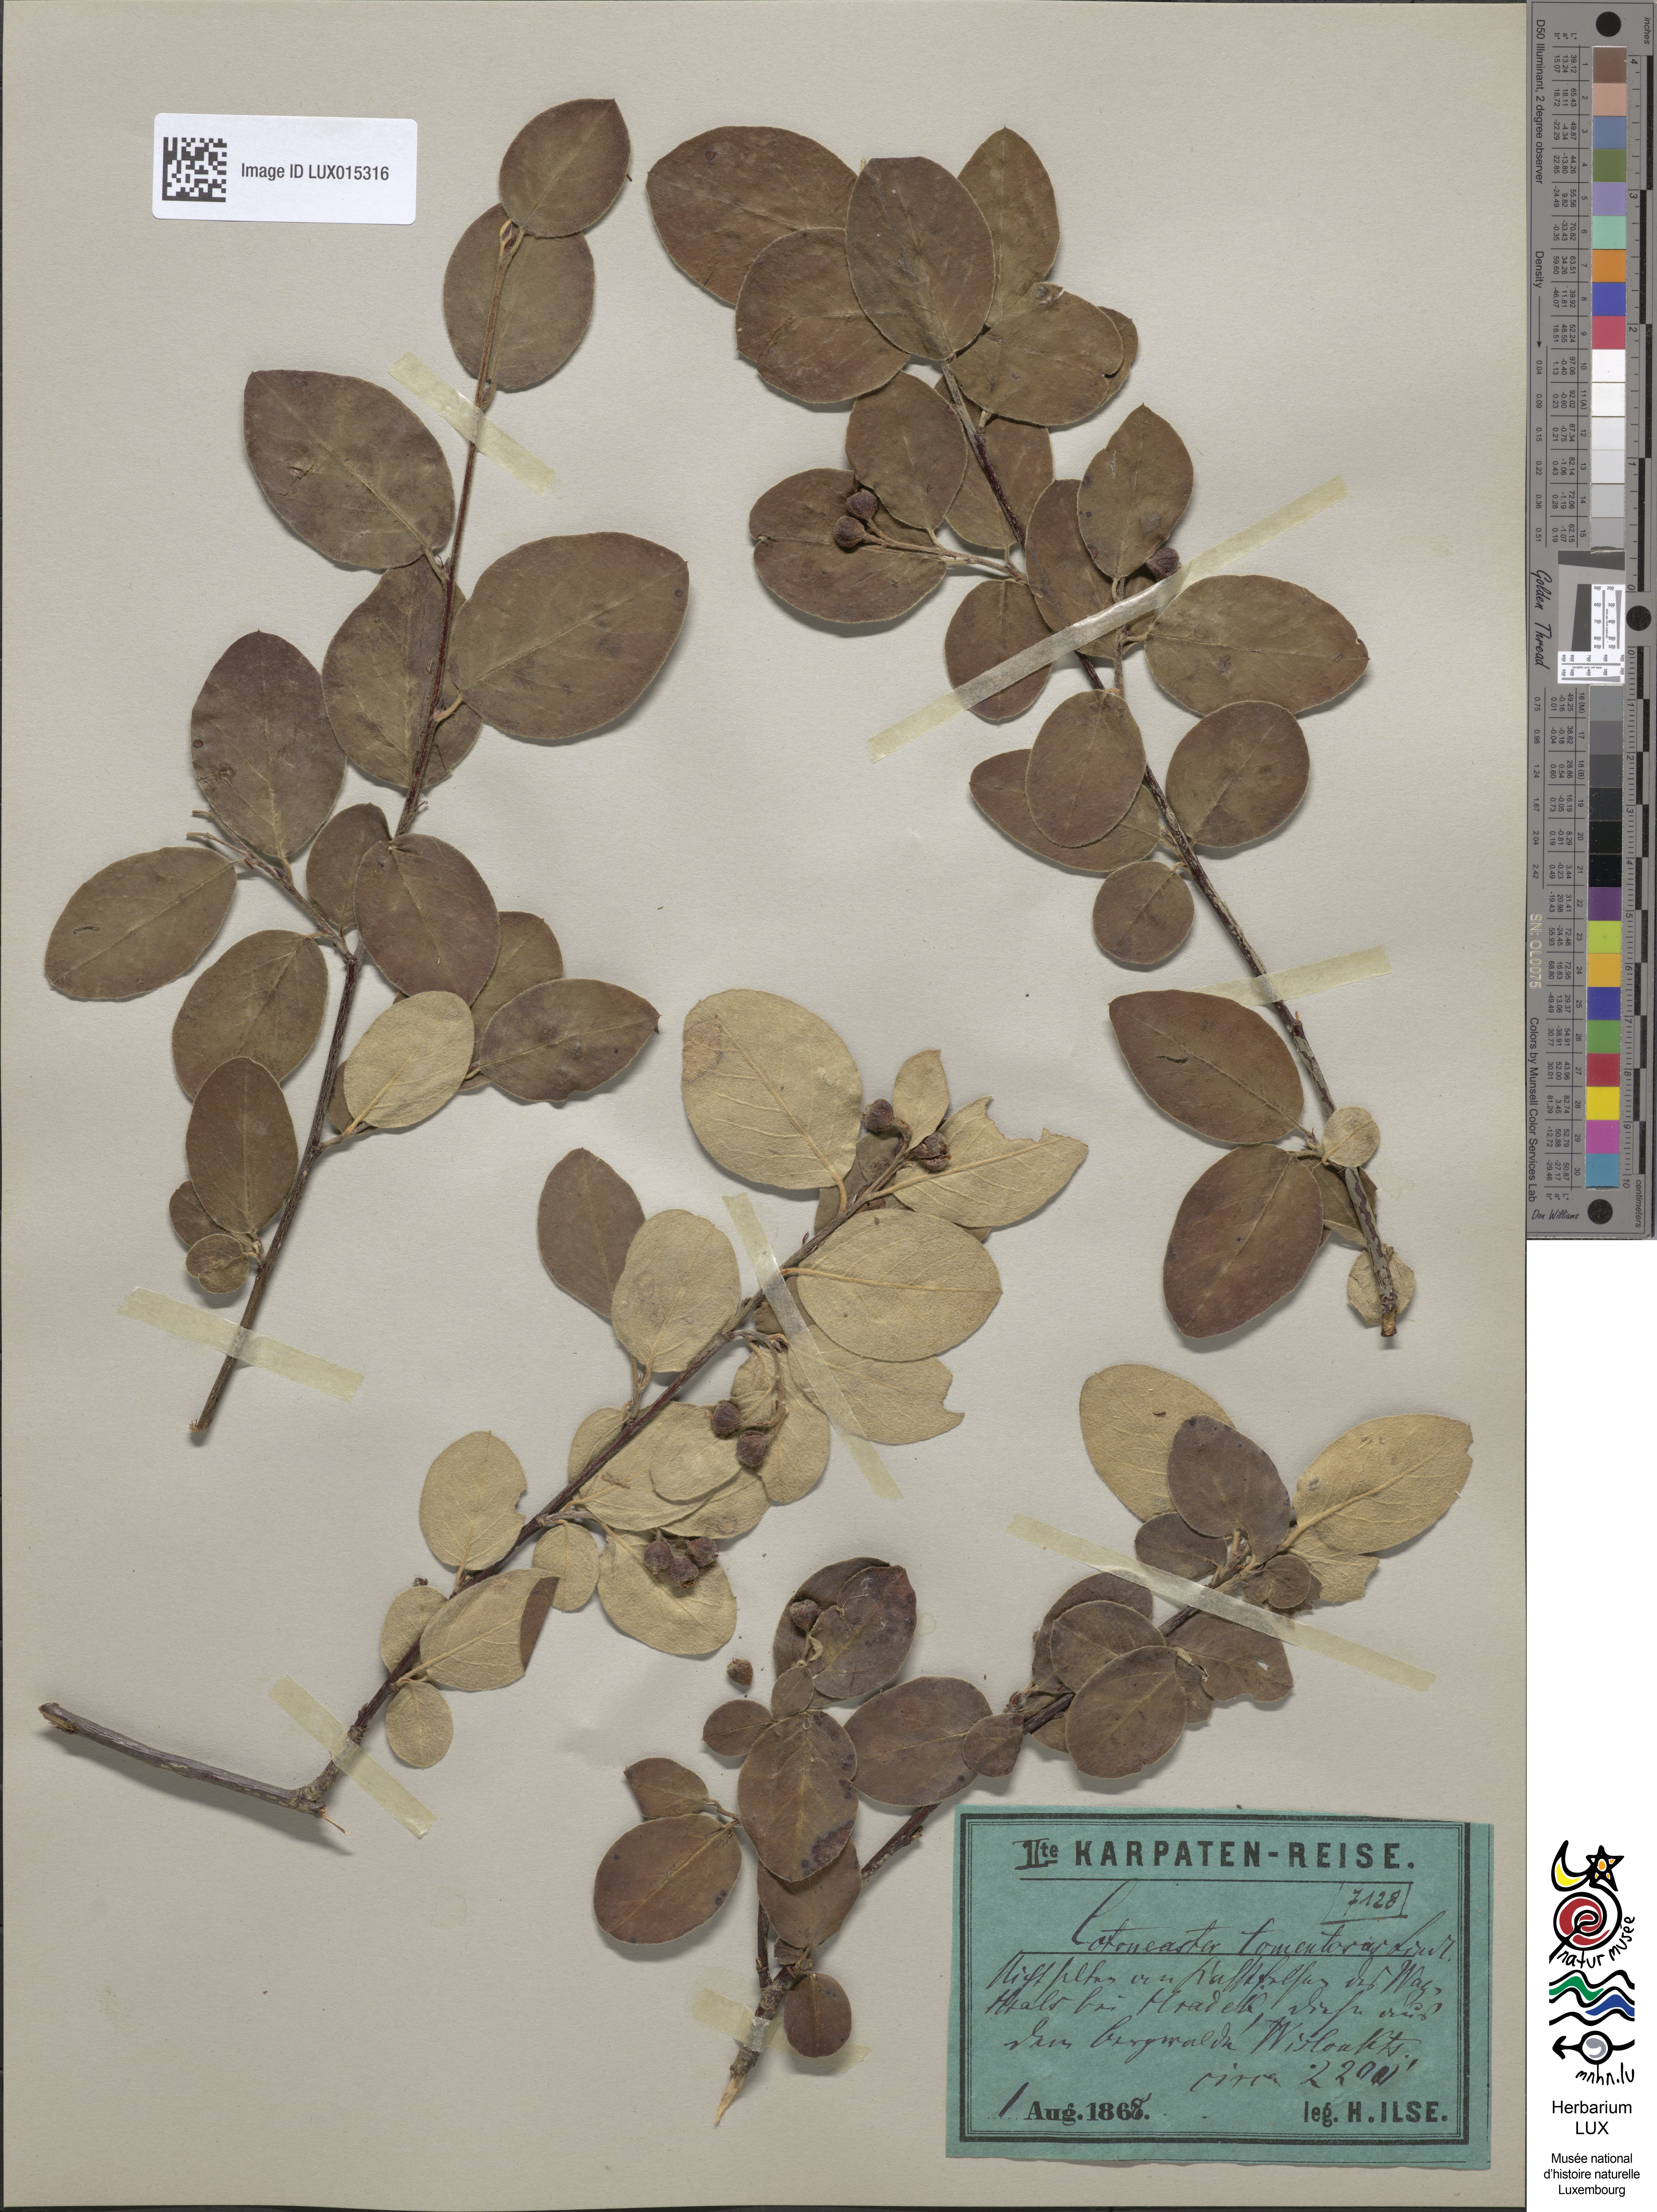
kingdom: Plantae
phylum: Tracheophyta
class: Magnoliopsida
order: Rosales
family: Rosaceae
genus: Cotoneaster
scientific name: Cotoneaster tomentosus
